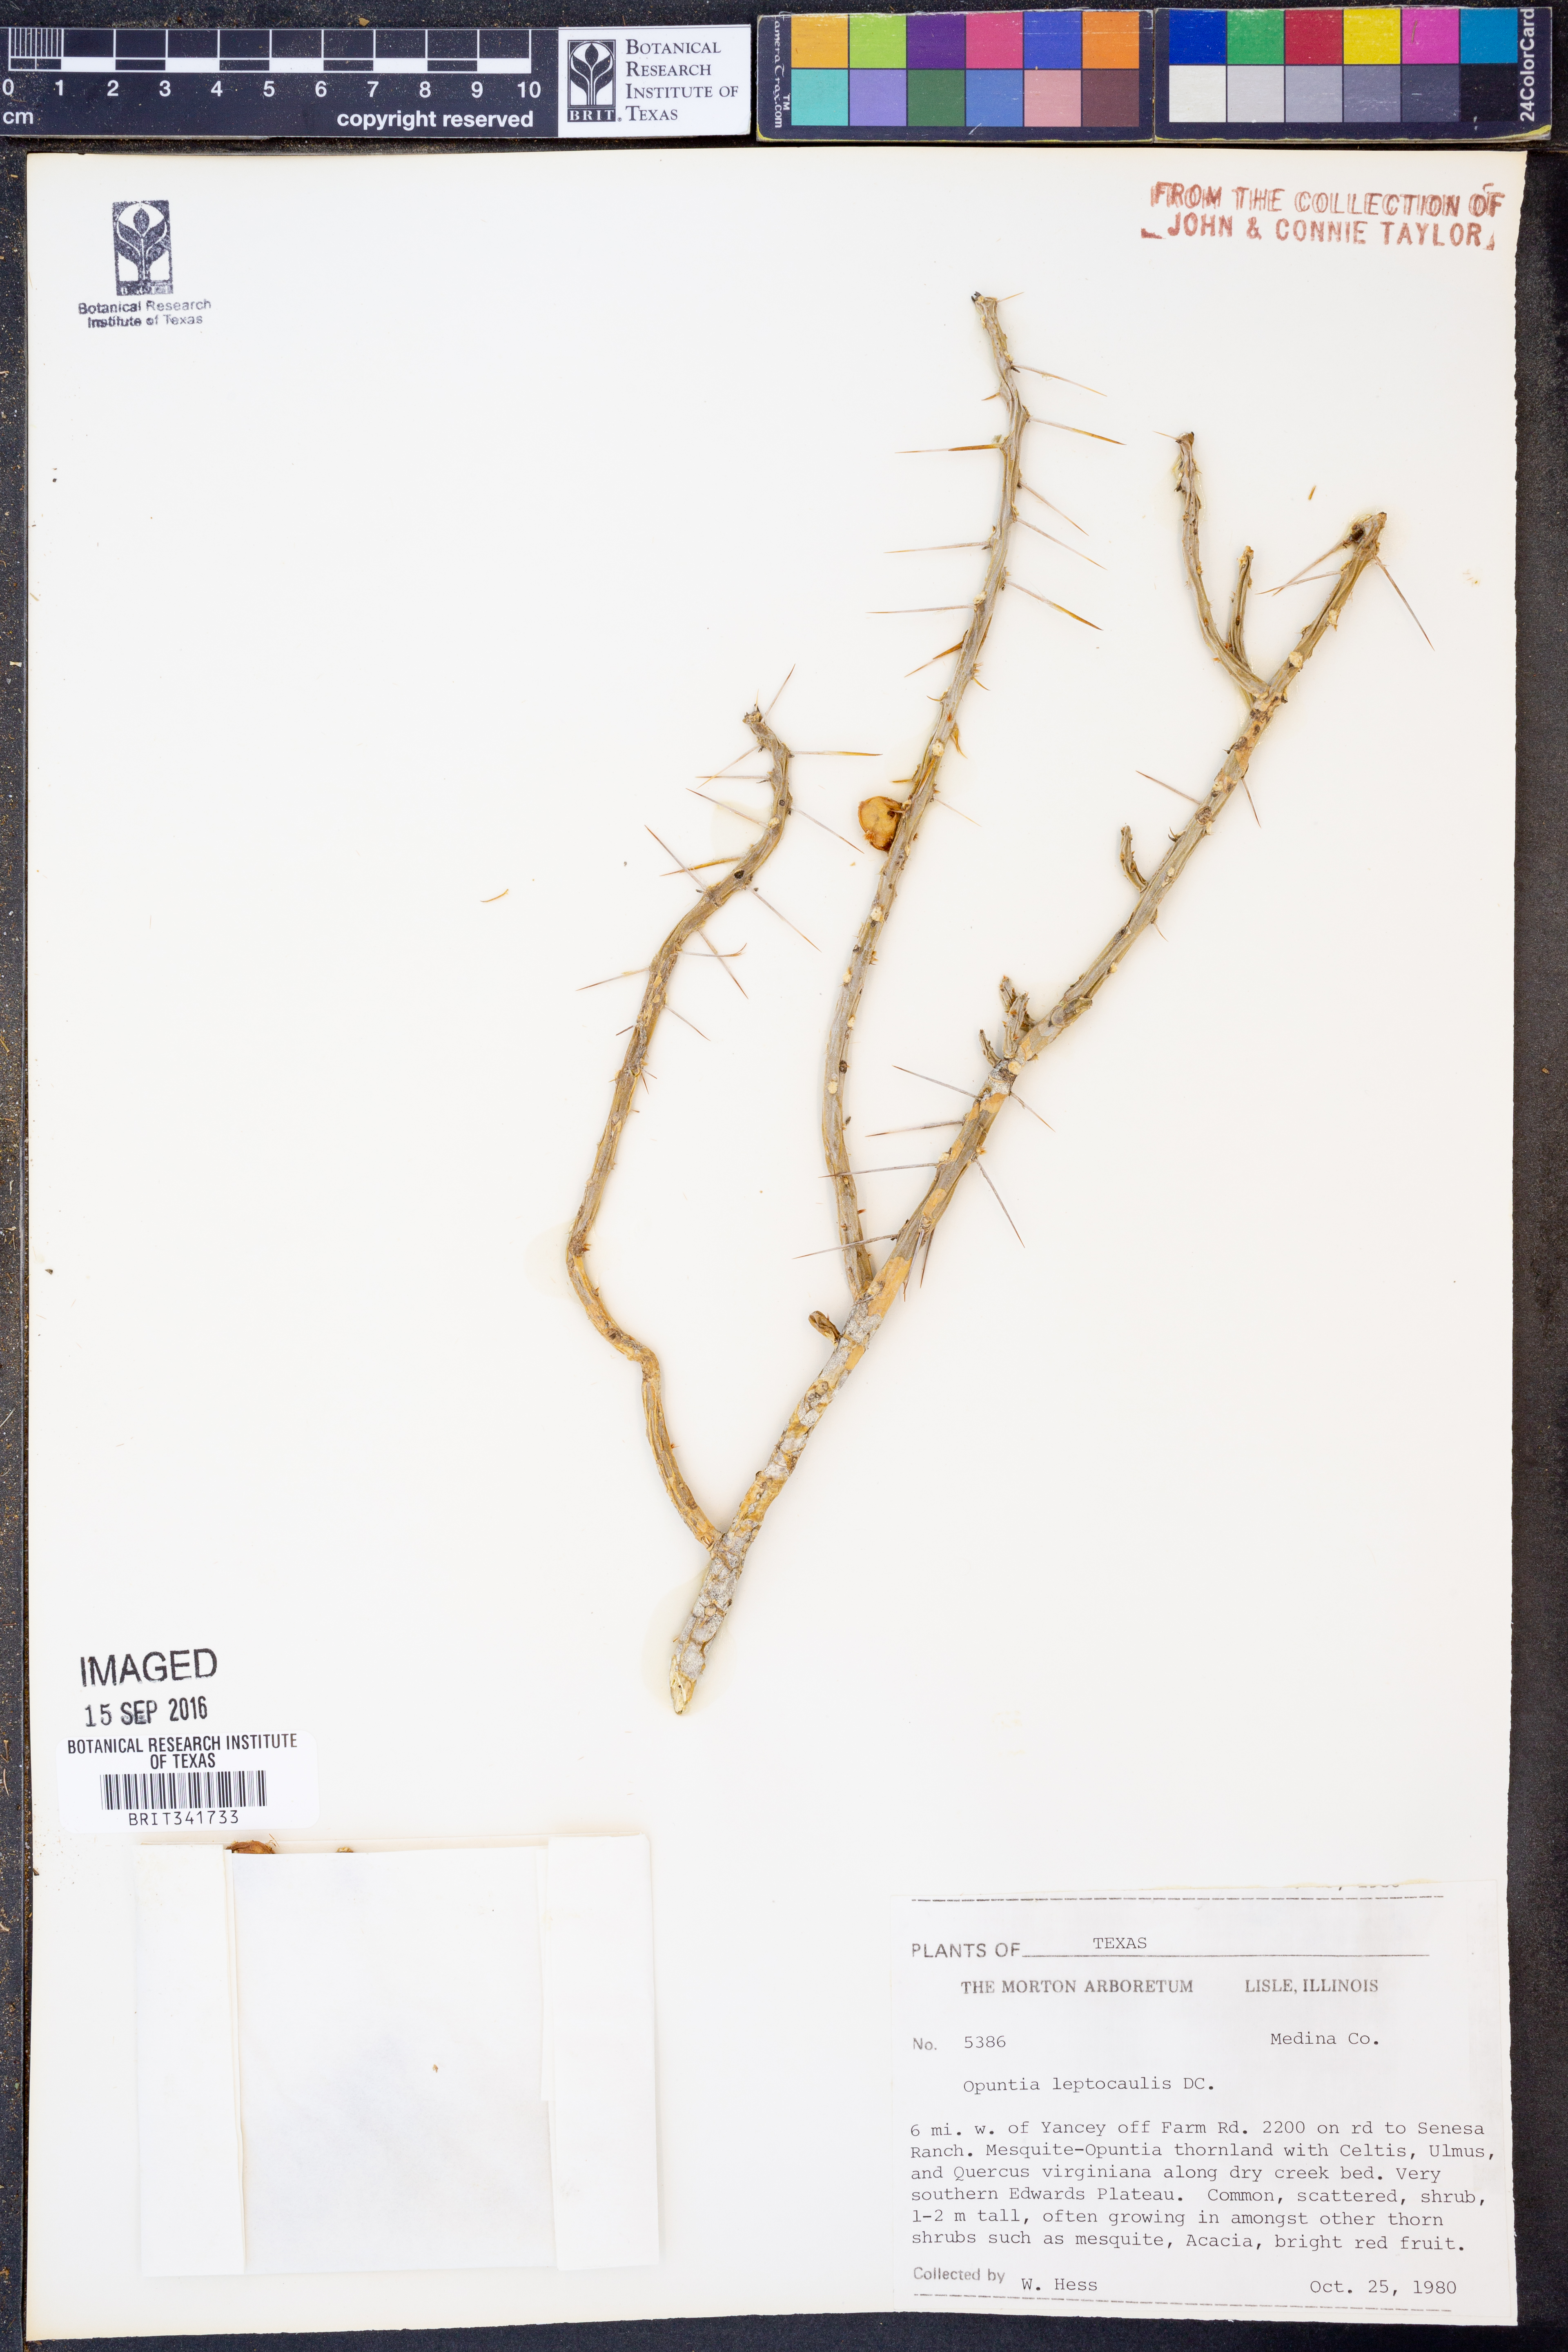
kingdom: Plantae
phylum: Tracheophyta
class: Magnoliopsida
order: Caryophyllales
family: Cactaceae
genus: Cylindropuntia
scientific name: Cylindropuntia leptocaulis
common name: Christmas cactus
